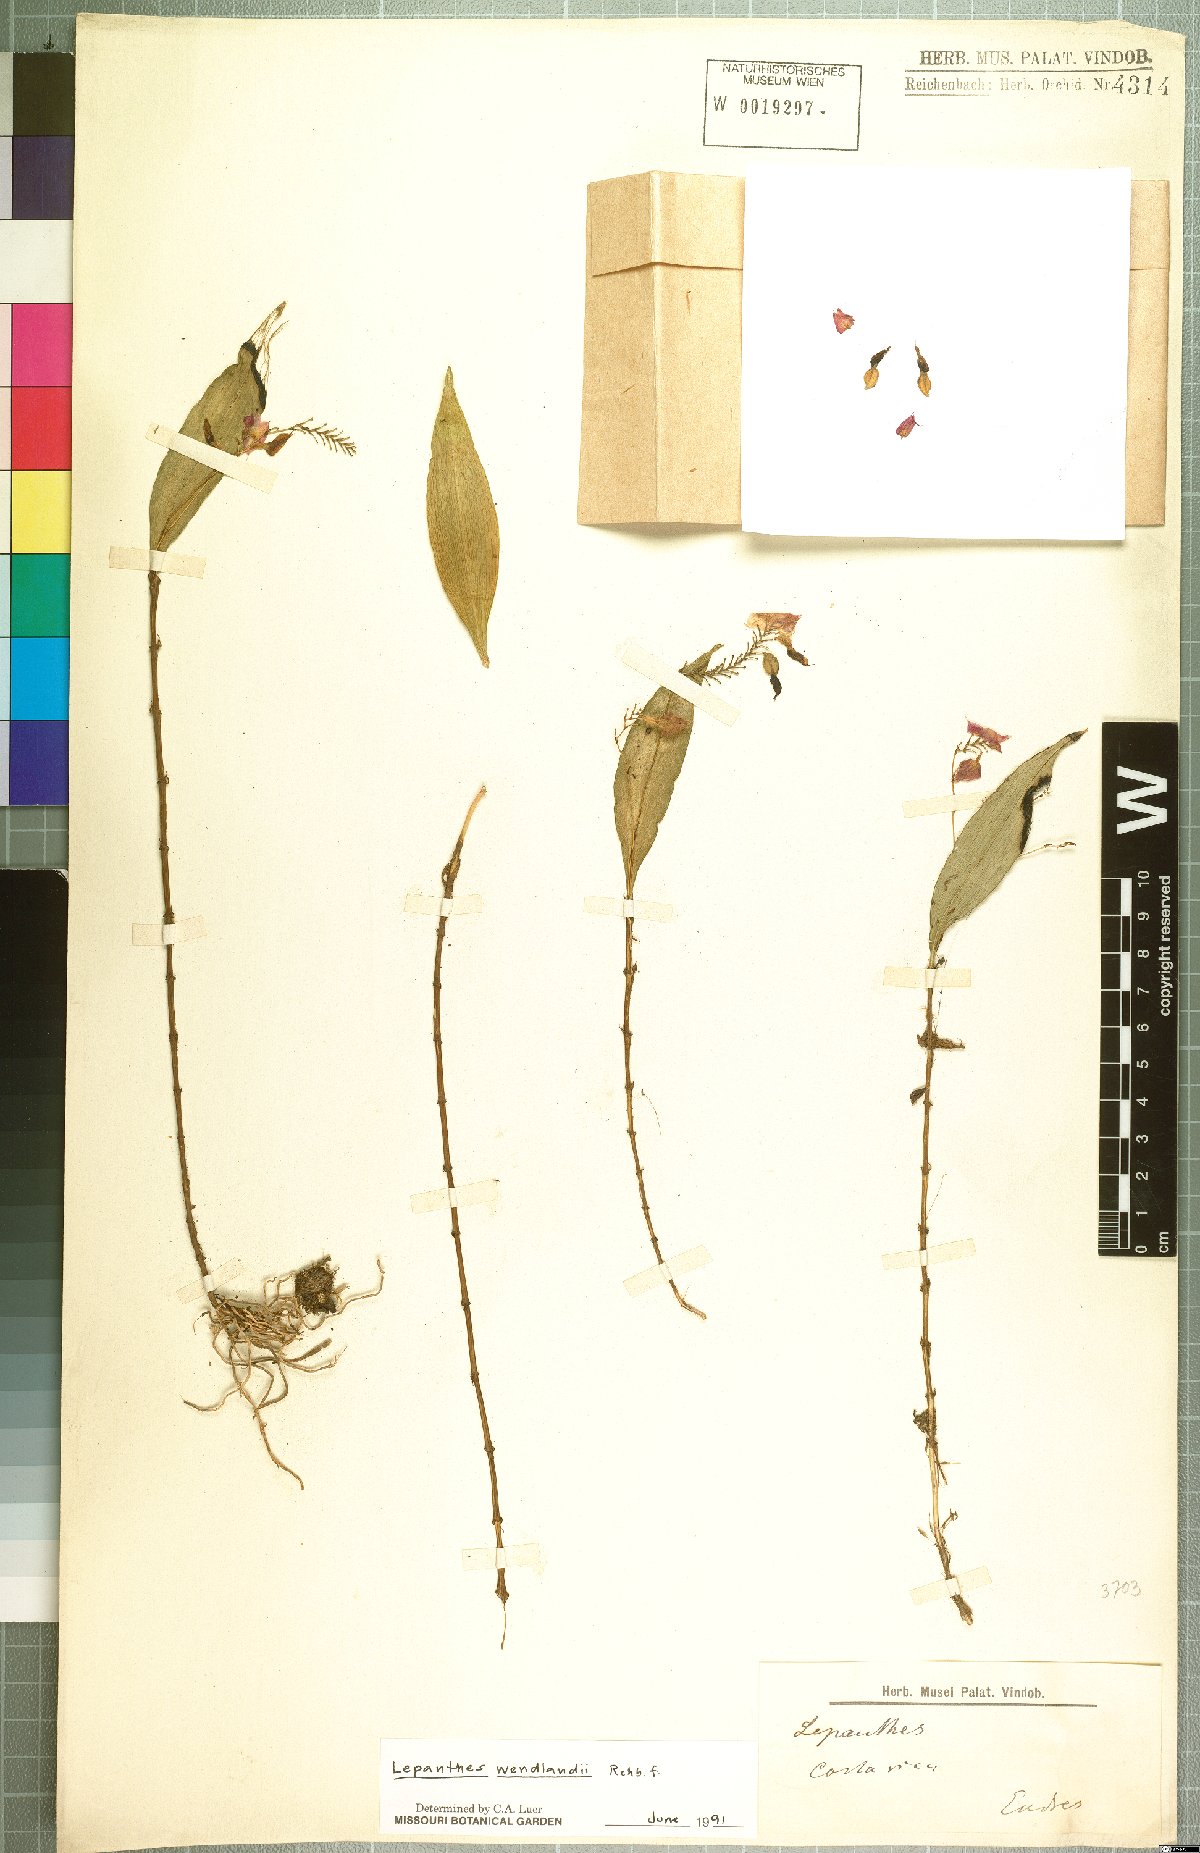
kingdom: Plantae
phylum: Tracheophyta
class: Liliopsida
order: Asparagales
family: Orchidaceae
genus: Lepanthes
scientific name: Lepanthes wendlandii
